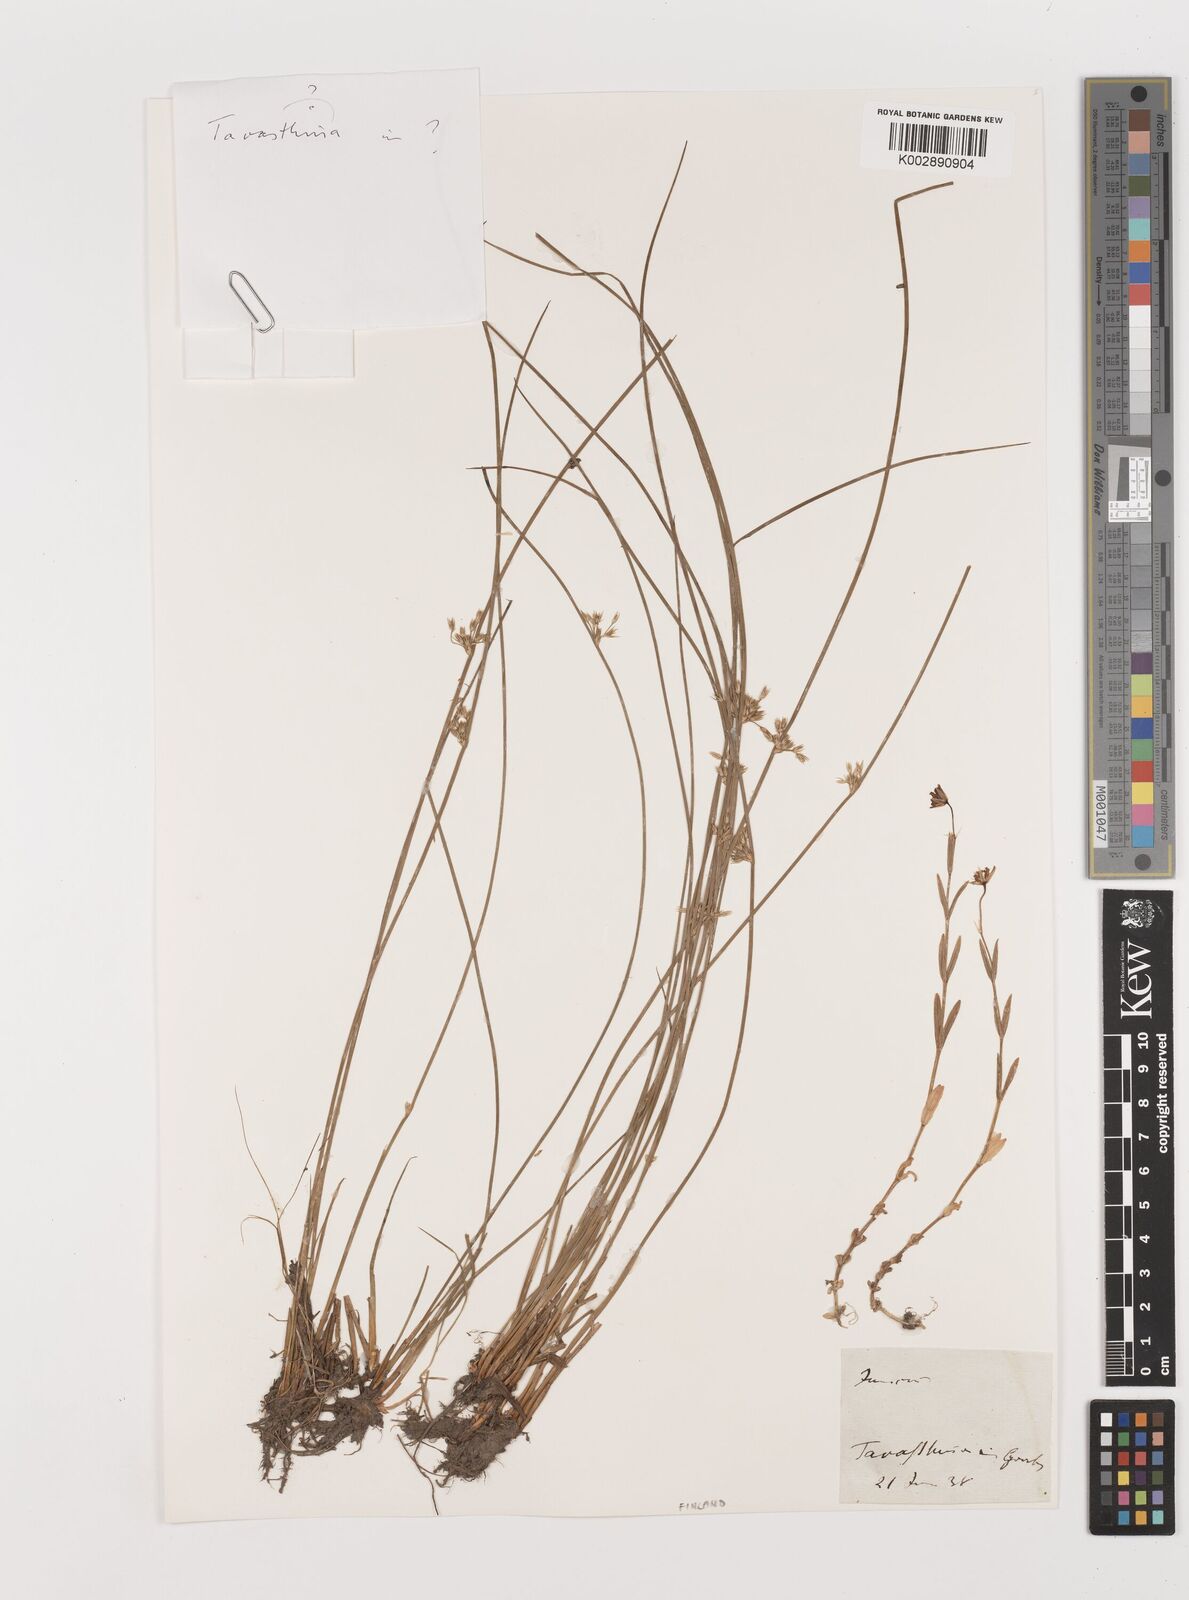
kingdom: Plantae
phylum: Tracheophyta
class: Liliopsida
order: Poales
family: Juncaceae
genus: Juncus
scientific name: Juncus
